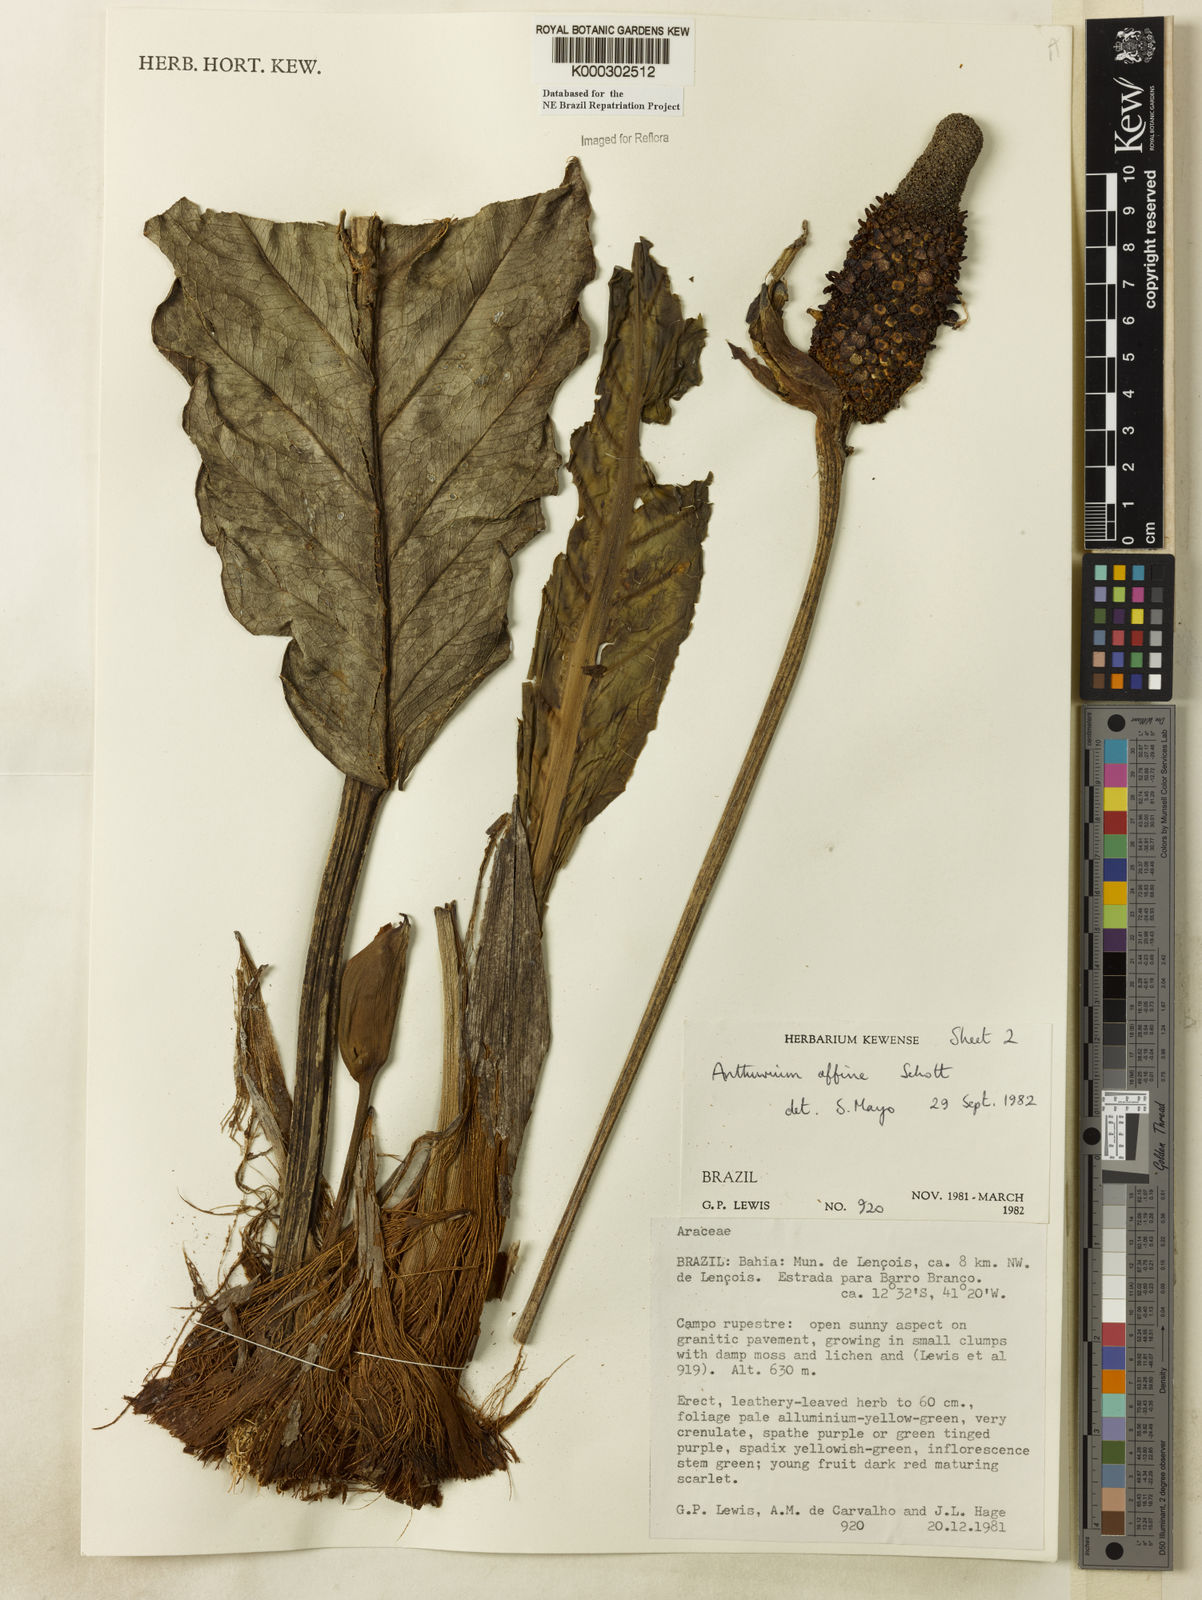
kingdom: Plantae
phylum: Tracheophyta
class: Liliopsida
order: Alismatales
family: Araceae
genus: Anthurium
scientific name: Anthurium affine
